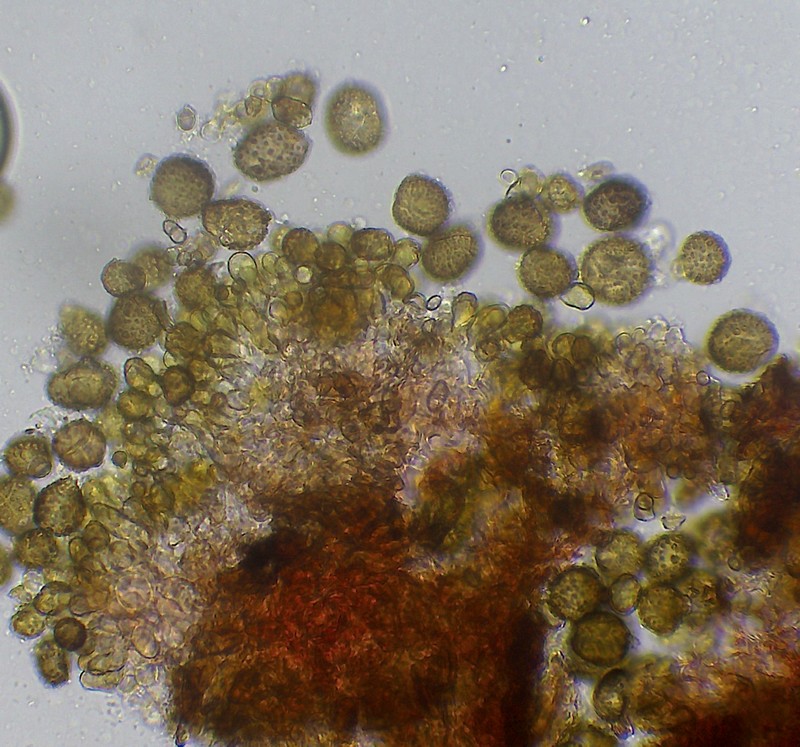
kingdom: Fungi
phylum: Ascomycota
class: Dothideomycetes
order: Pleosporales
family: Didymellaceae
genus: Epicoccum
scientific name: Epicoccum nigrum
